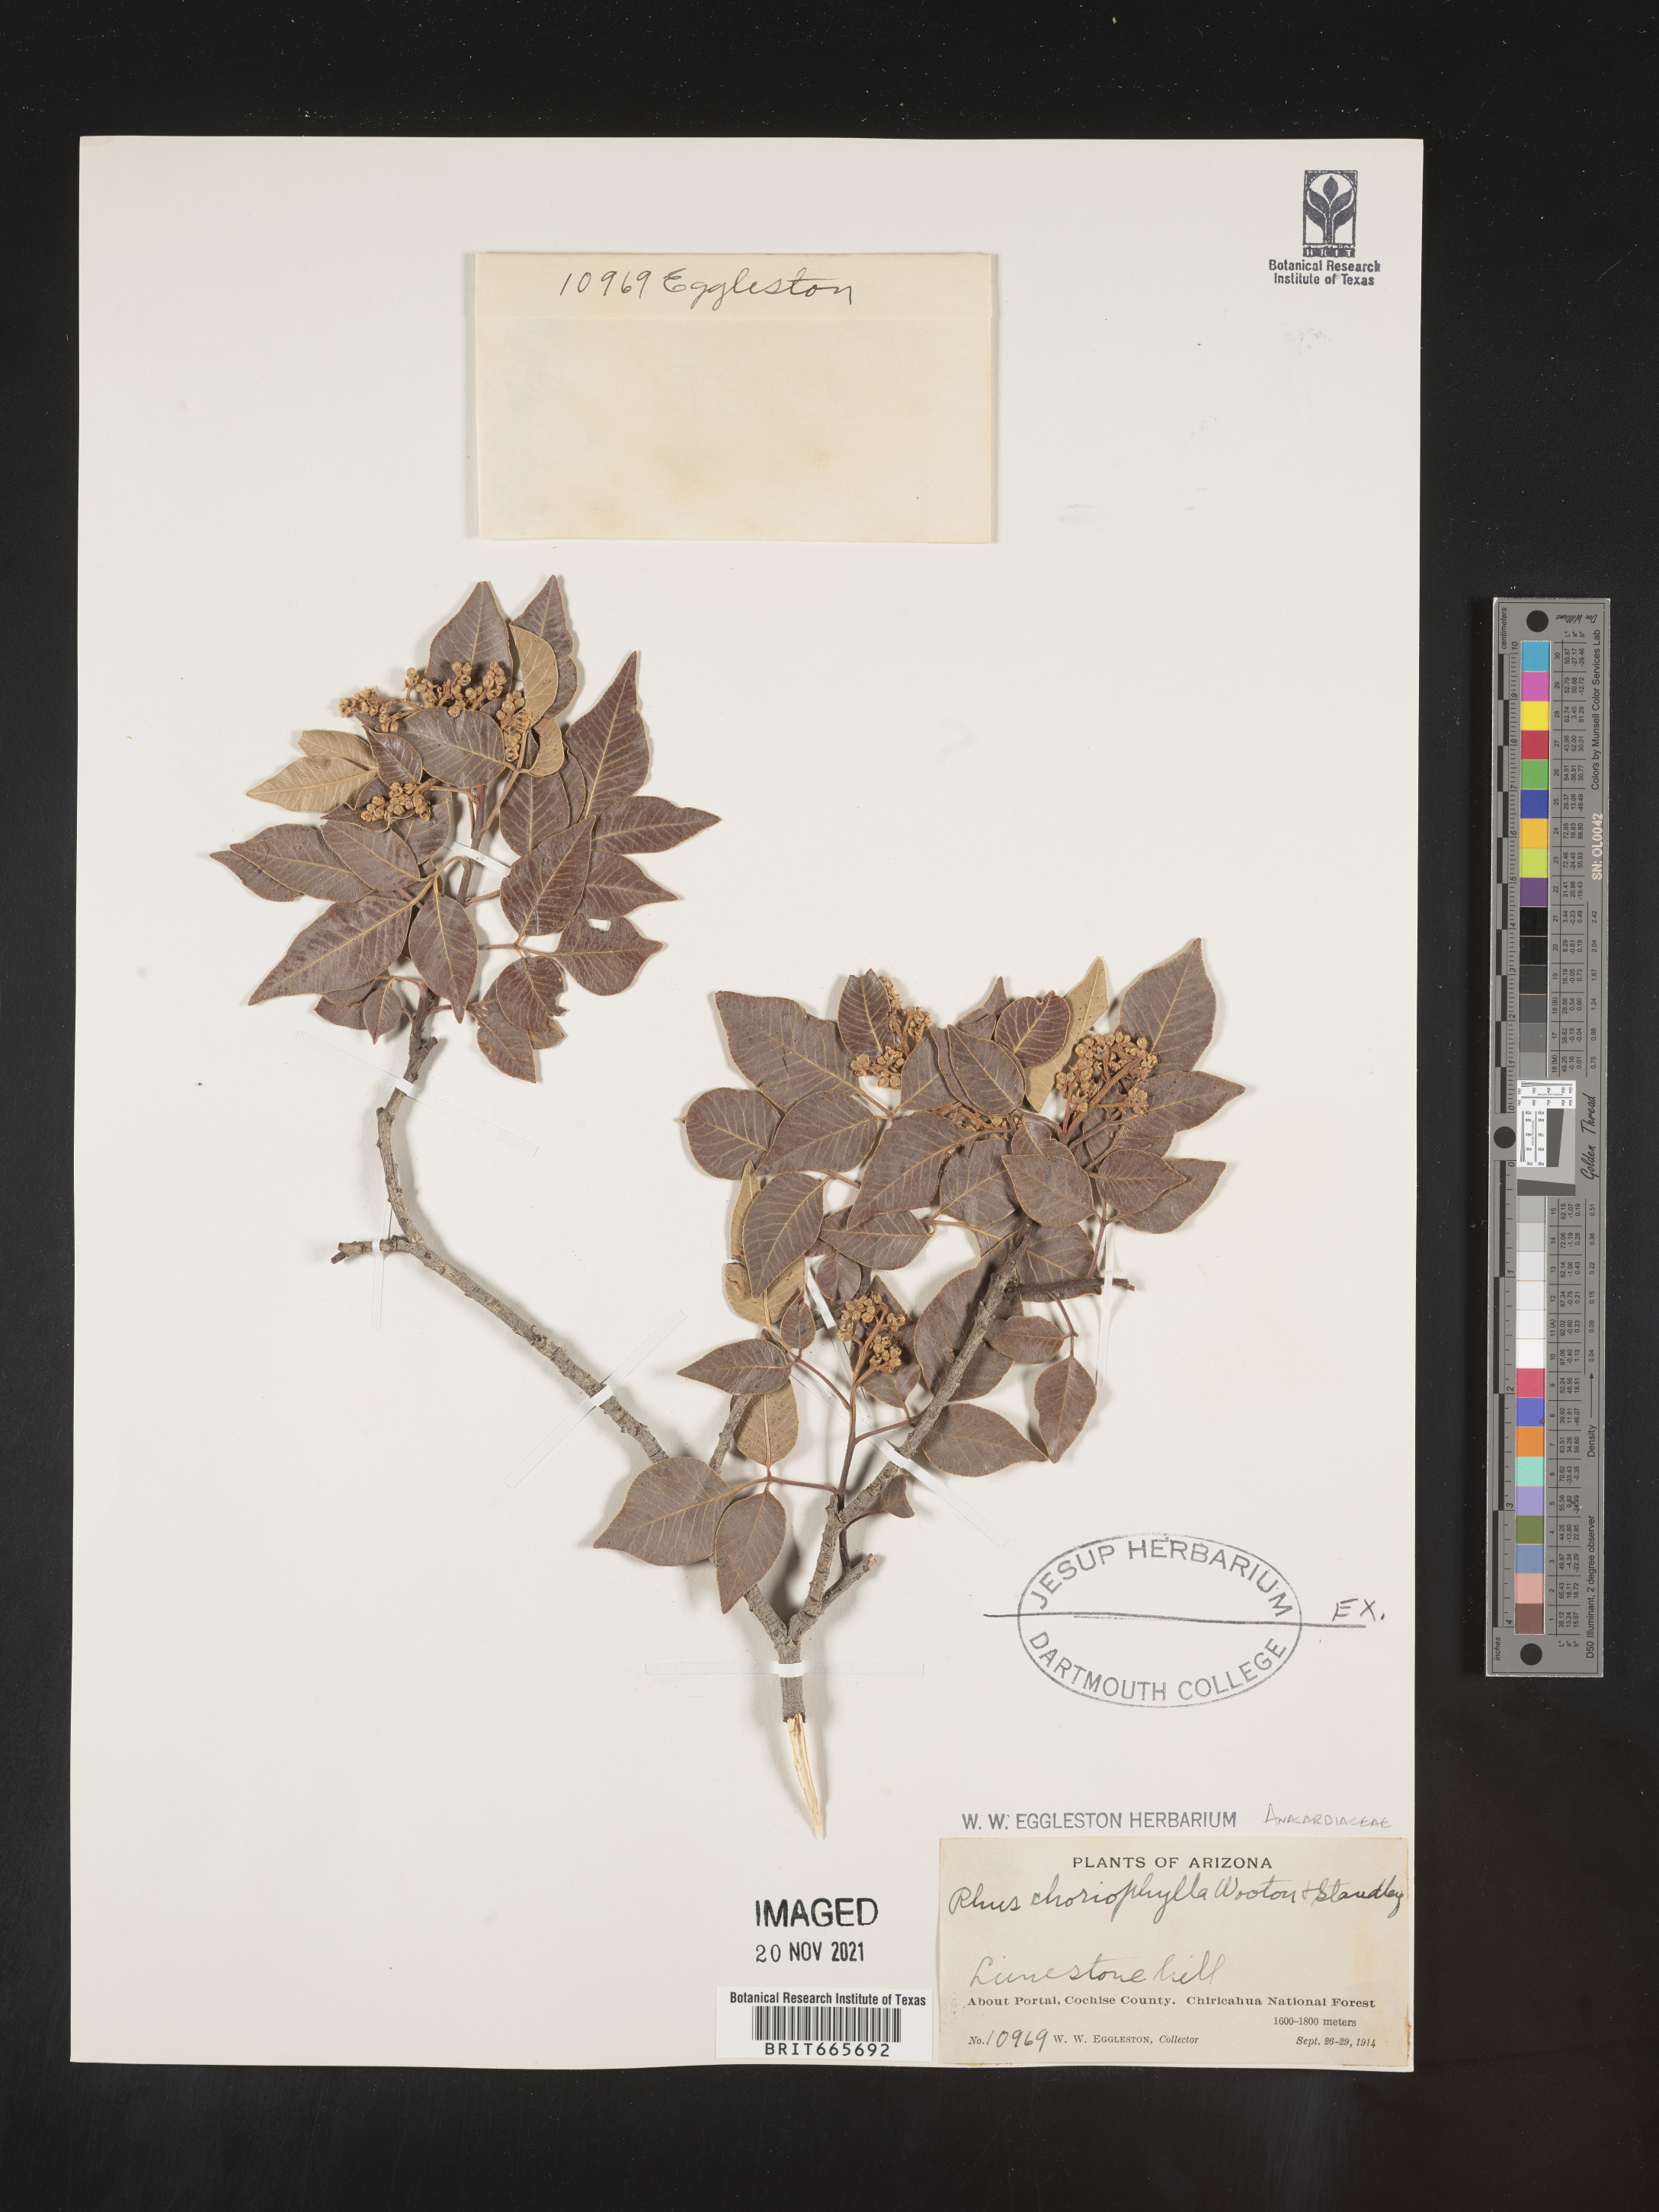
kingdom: Plantae
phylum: Tracheophyta
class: Magnoliopsida
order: Sapindales
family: Anacardiaceae
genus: Rhus
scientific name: Rhus
